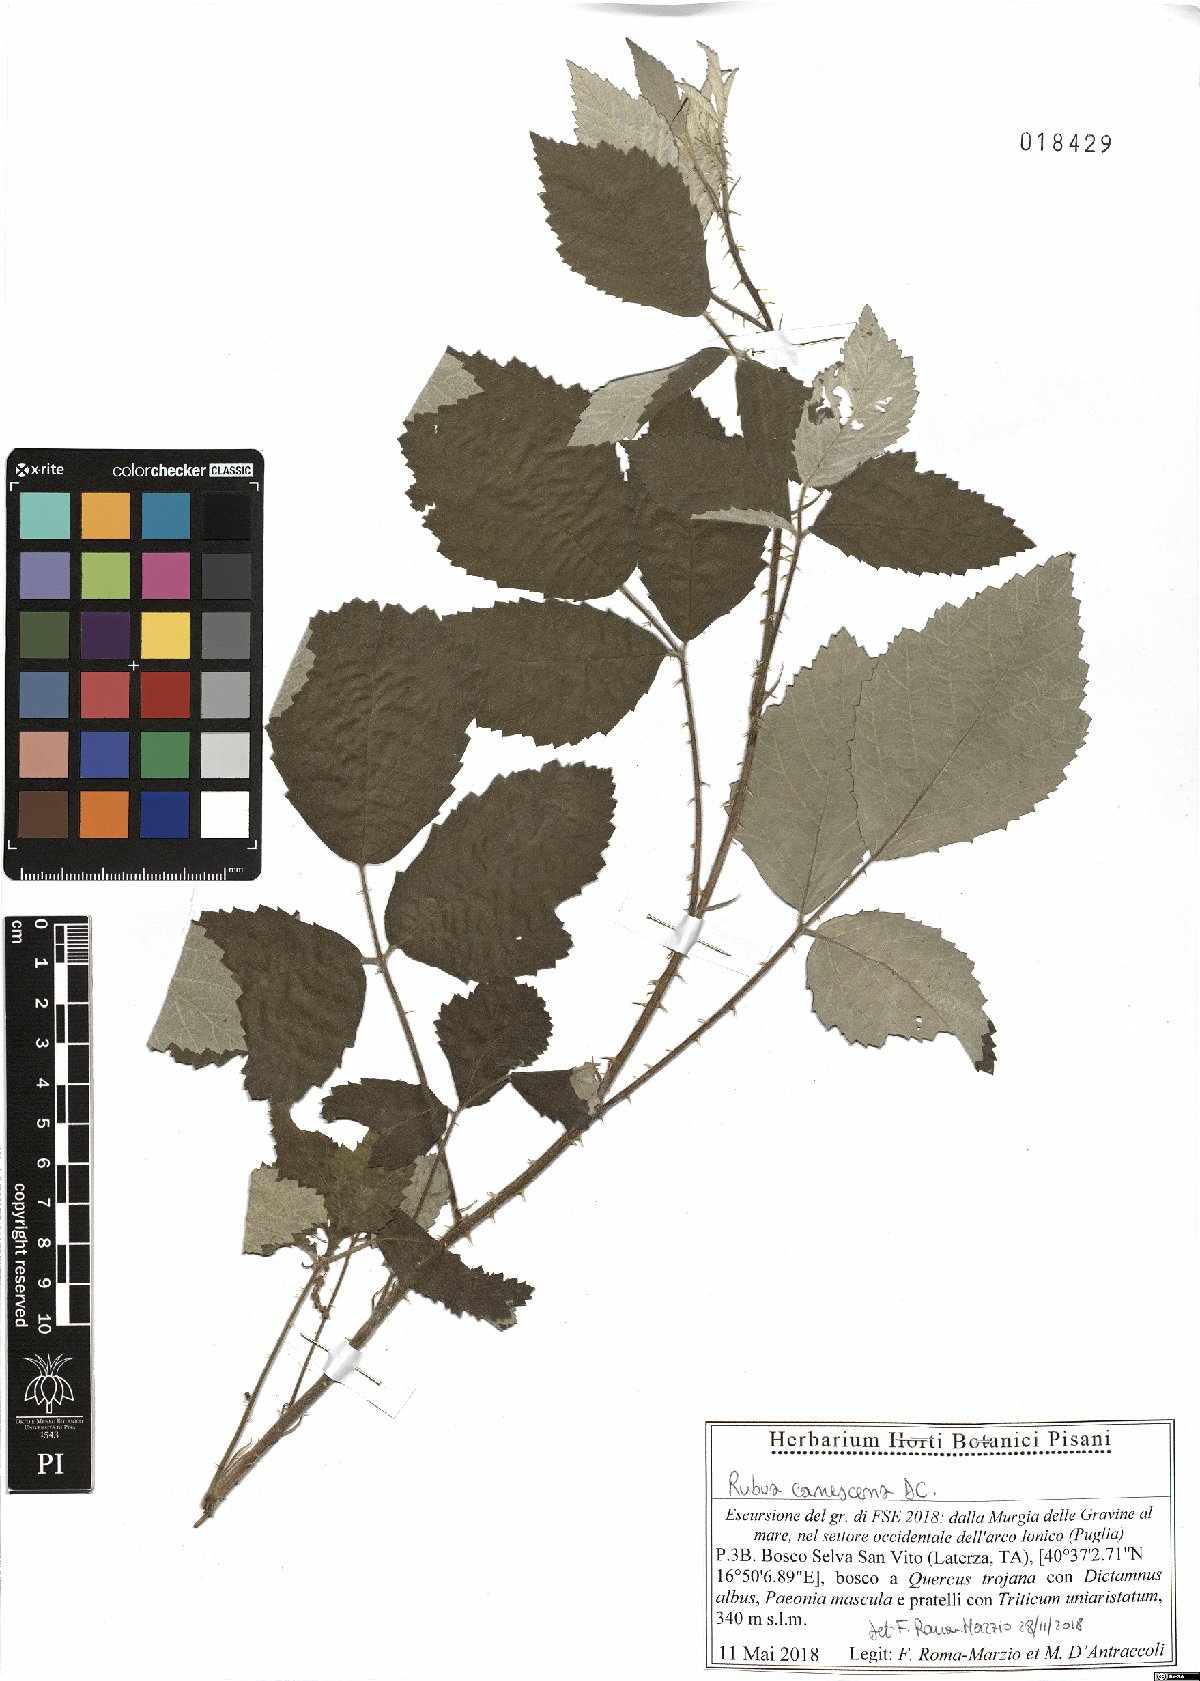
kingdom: Plantae
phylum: Tracheophyta
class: Magnoliopsida
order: Rosales
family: Rosaceae
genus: Rubus
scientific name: Rubus canescens
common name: Wooly blackberry
